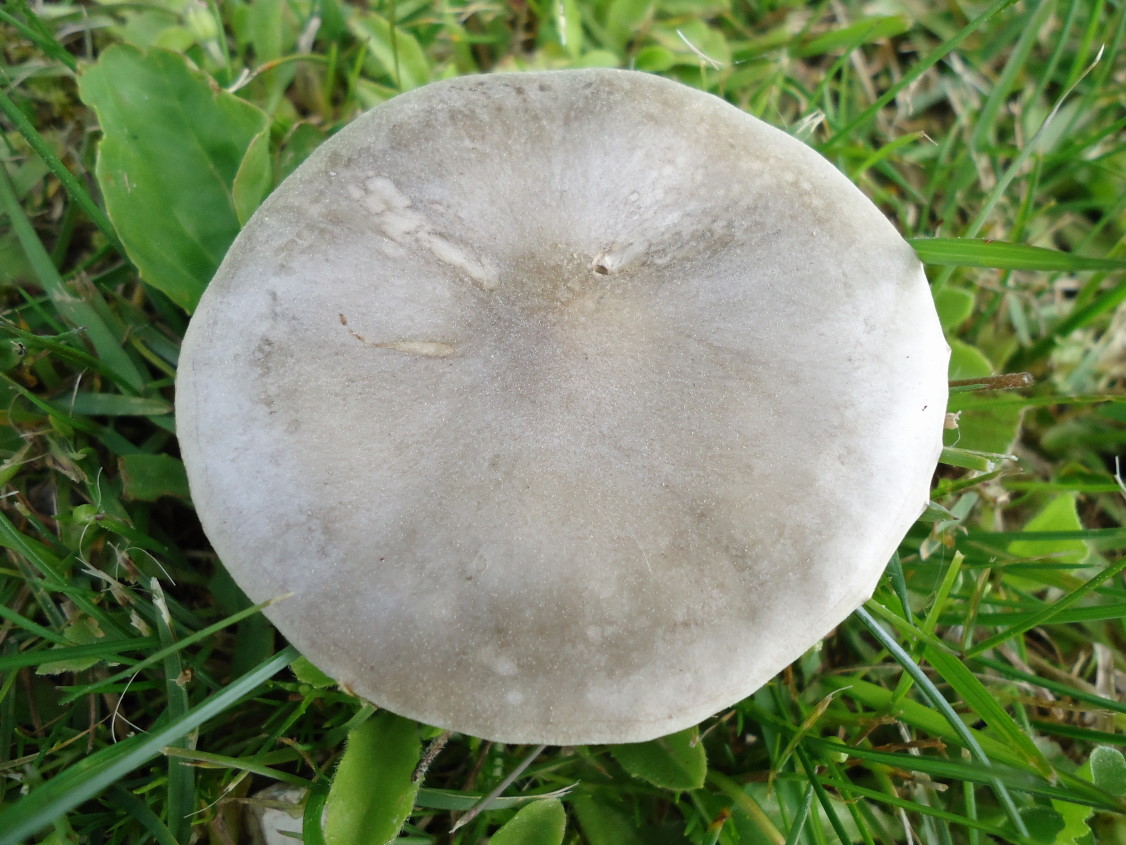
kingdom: Fungi
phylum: Basidiomycota
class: Agaricomycetes
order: Agaricales
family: Tricholomataceae
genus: Melanoleuca
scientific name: Melanoleuca cognata
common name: gyldengrå munkehat
